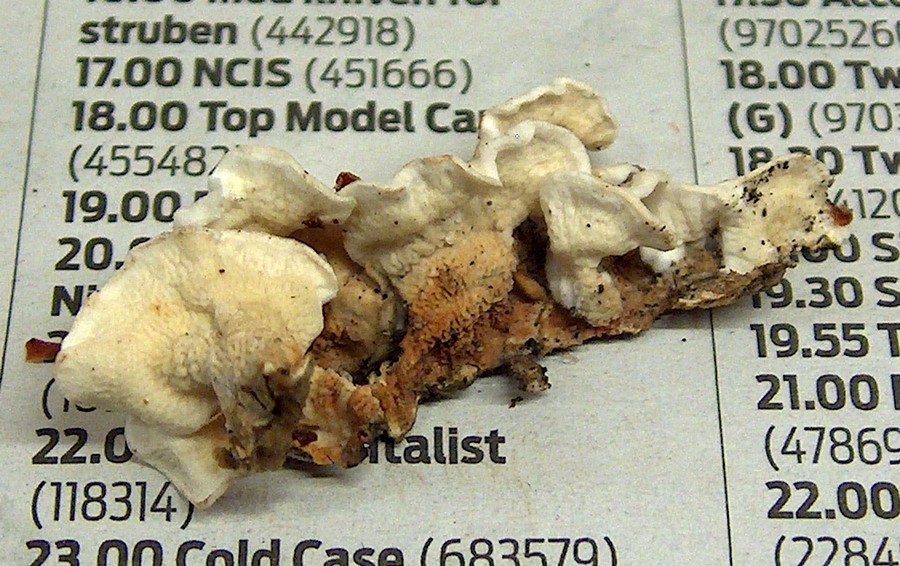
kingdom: Fungi
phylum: Basidiomycota
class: Agaricomycetes
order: Polyporales
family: Irpicaceae
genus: Byssomerulius
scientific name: Byssomerulius corium
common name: læder-åresvamp
